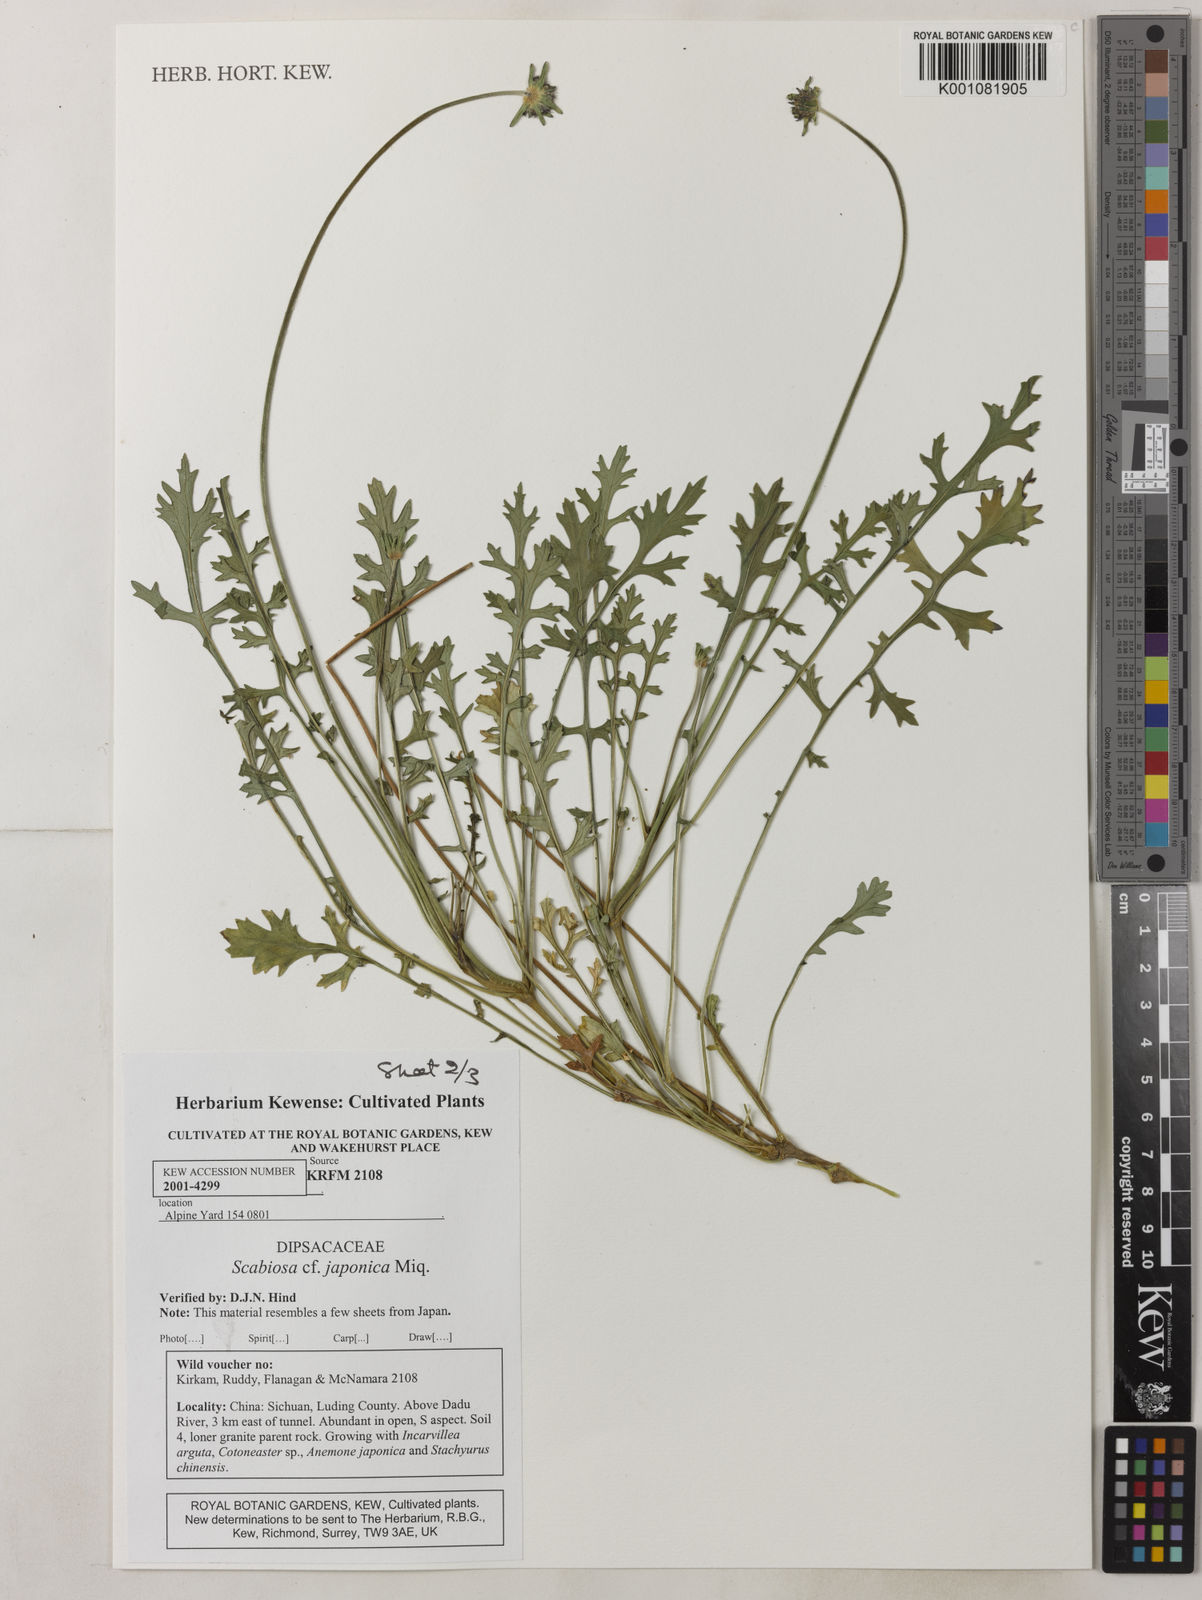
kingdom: Plantae
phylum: Tracheophyta
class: Magnoliopsida
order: Dipsacales
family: Caprifoliaceae
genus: Scabiosa
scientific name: Scabiosa japonica
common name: Pincushion-flower
